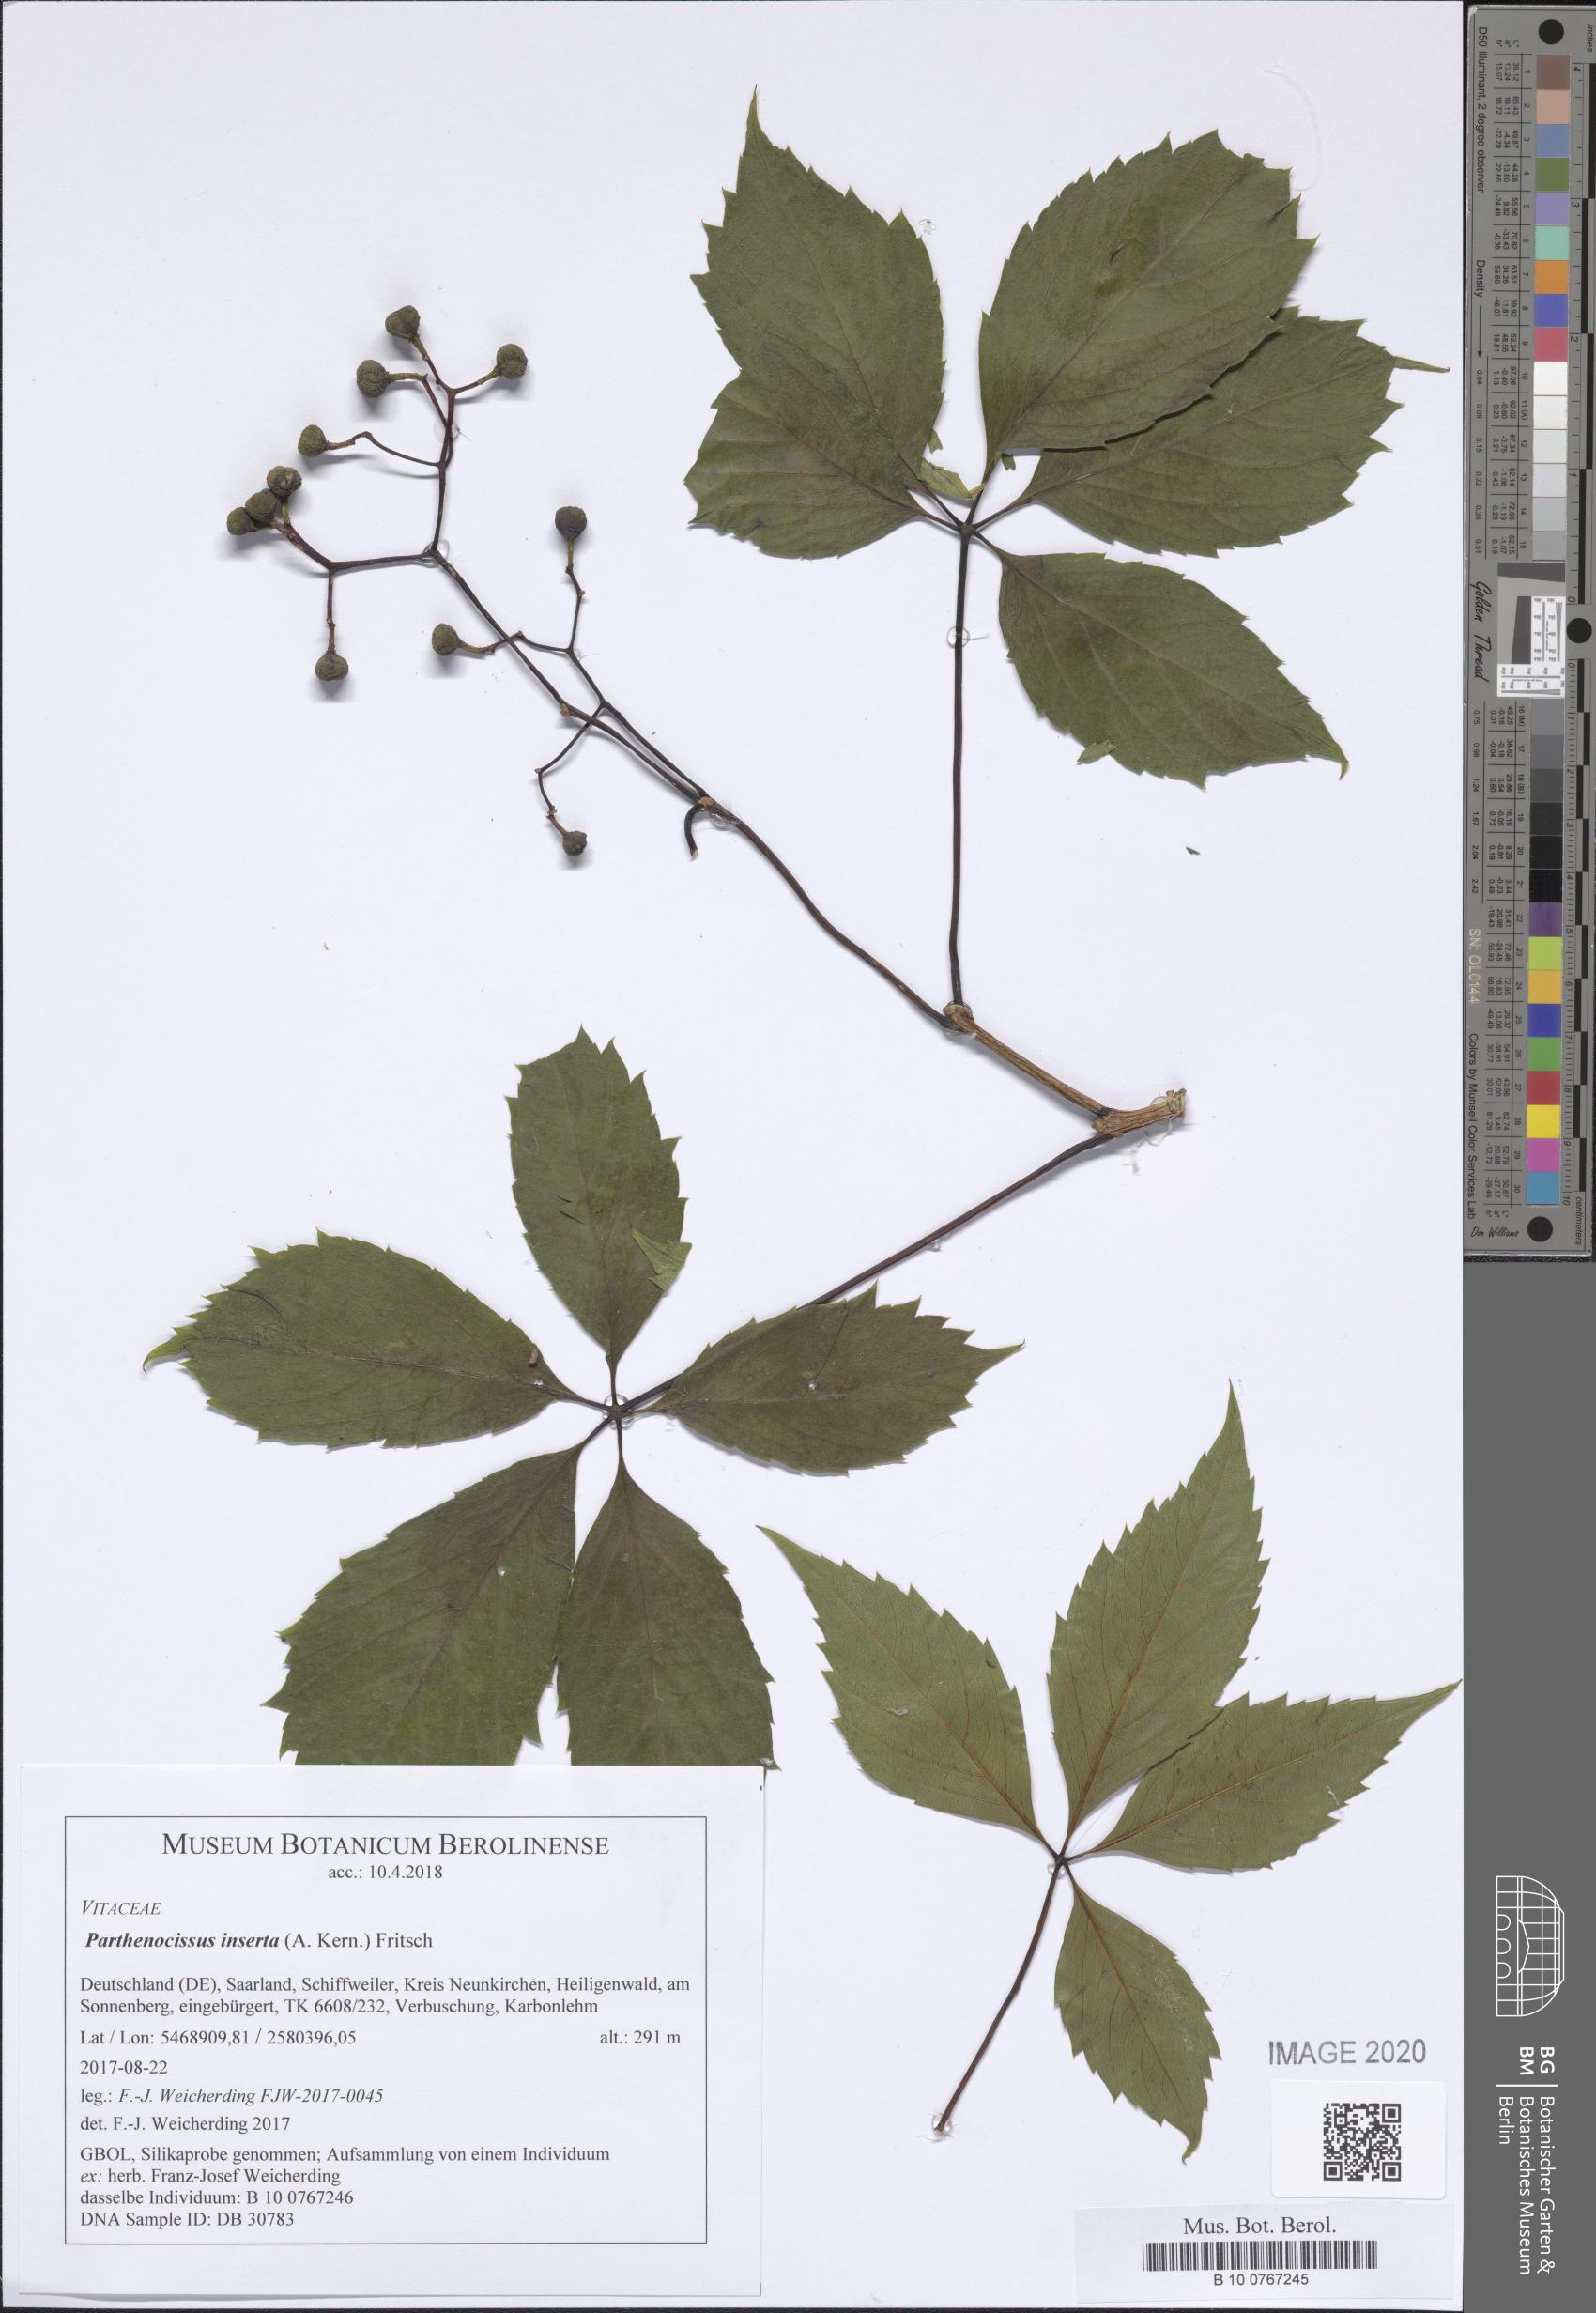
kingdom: Plantae
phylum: Tracheophyta
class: Magnoliopsida
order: Vitales
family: Vitaceae
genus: Parthenocissus
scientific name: Parthenocissus inserta
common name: False virginia-creeper
